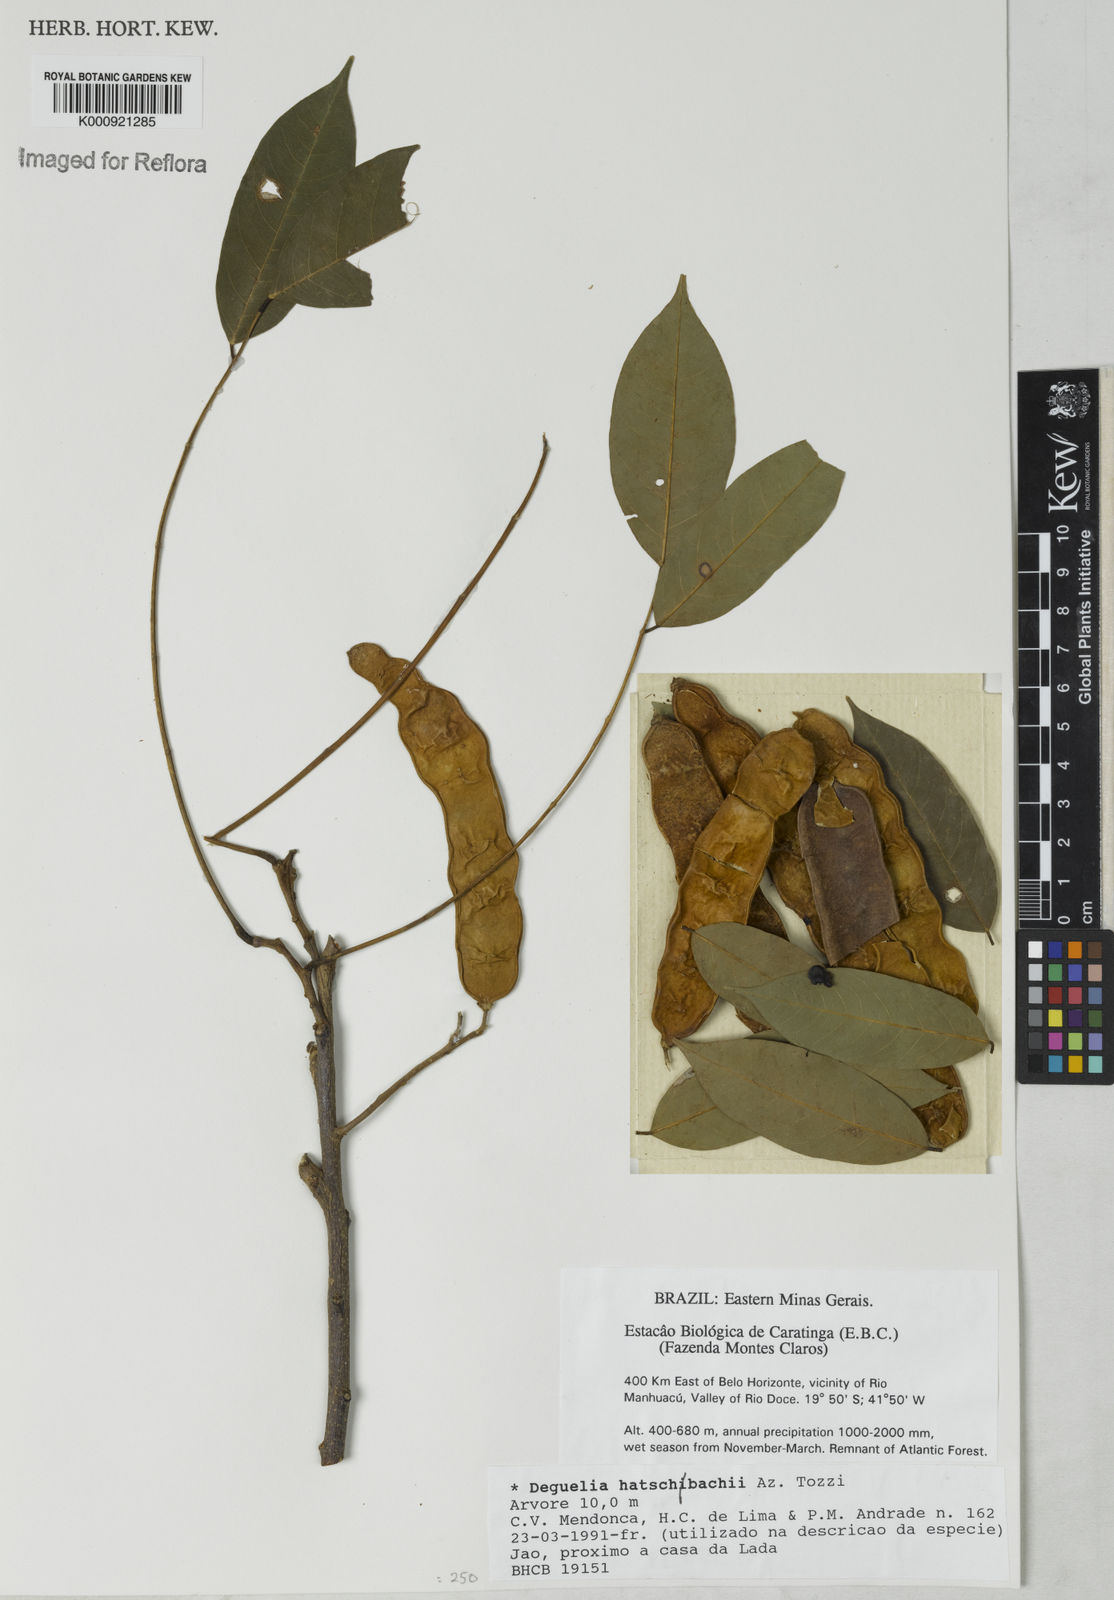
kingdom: Plantae
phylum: Tracheophyta
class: Magnoliopsida
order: Fabales
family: Fabaceae
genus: Deguelia
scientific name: Deguelia hatschbachii
